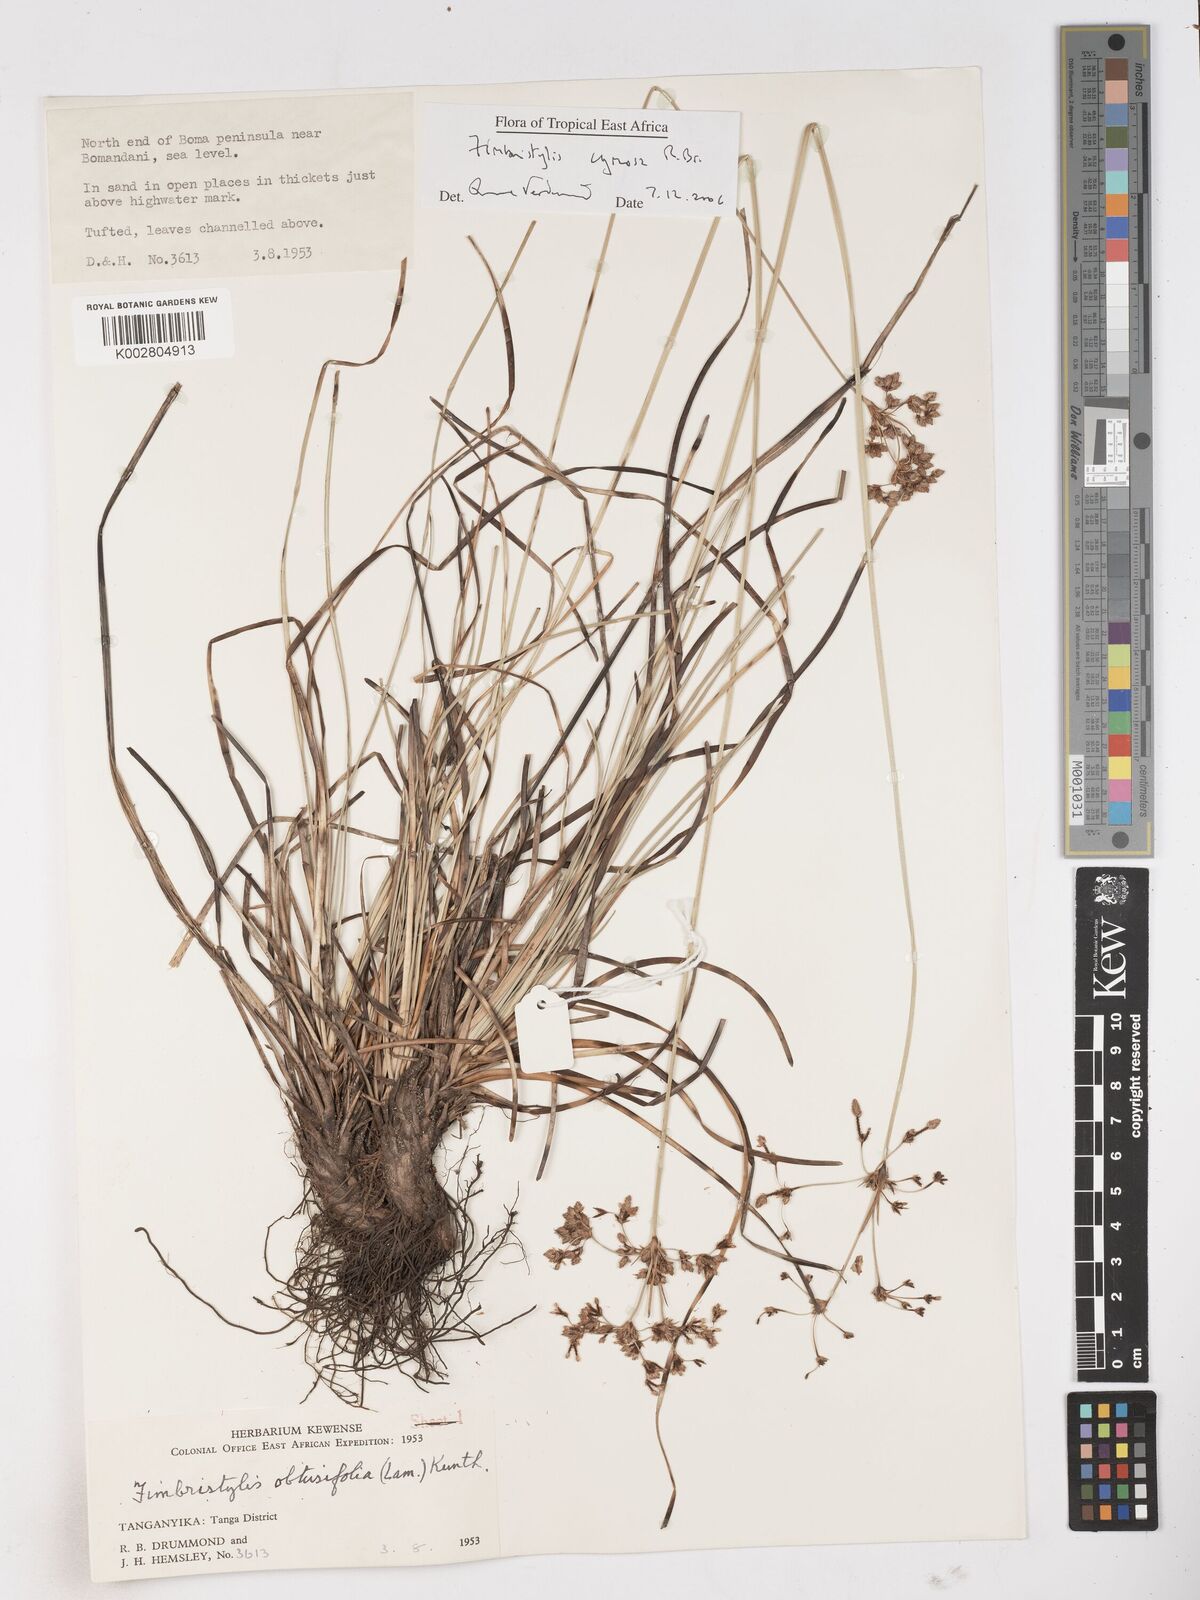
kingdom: Plantae
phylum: Tracheophyta
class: Liliopsida
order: Poales
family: Cyperaceae
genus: Fimbristylis
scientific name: Fimbristylis cymosa
